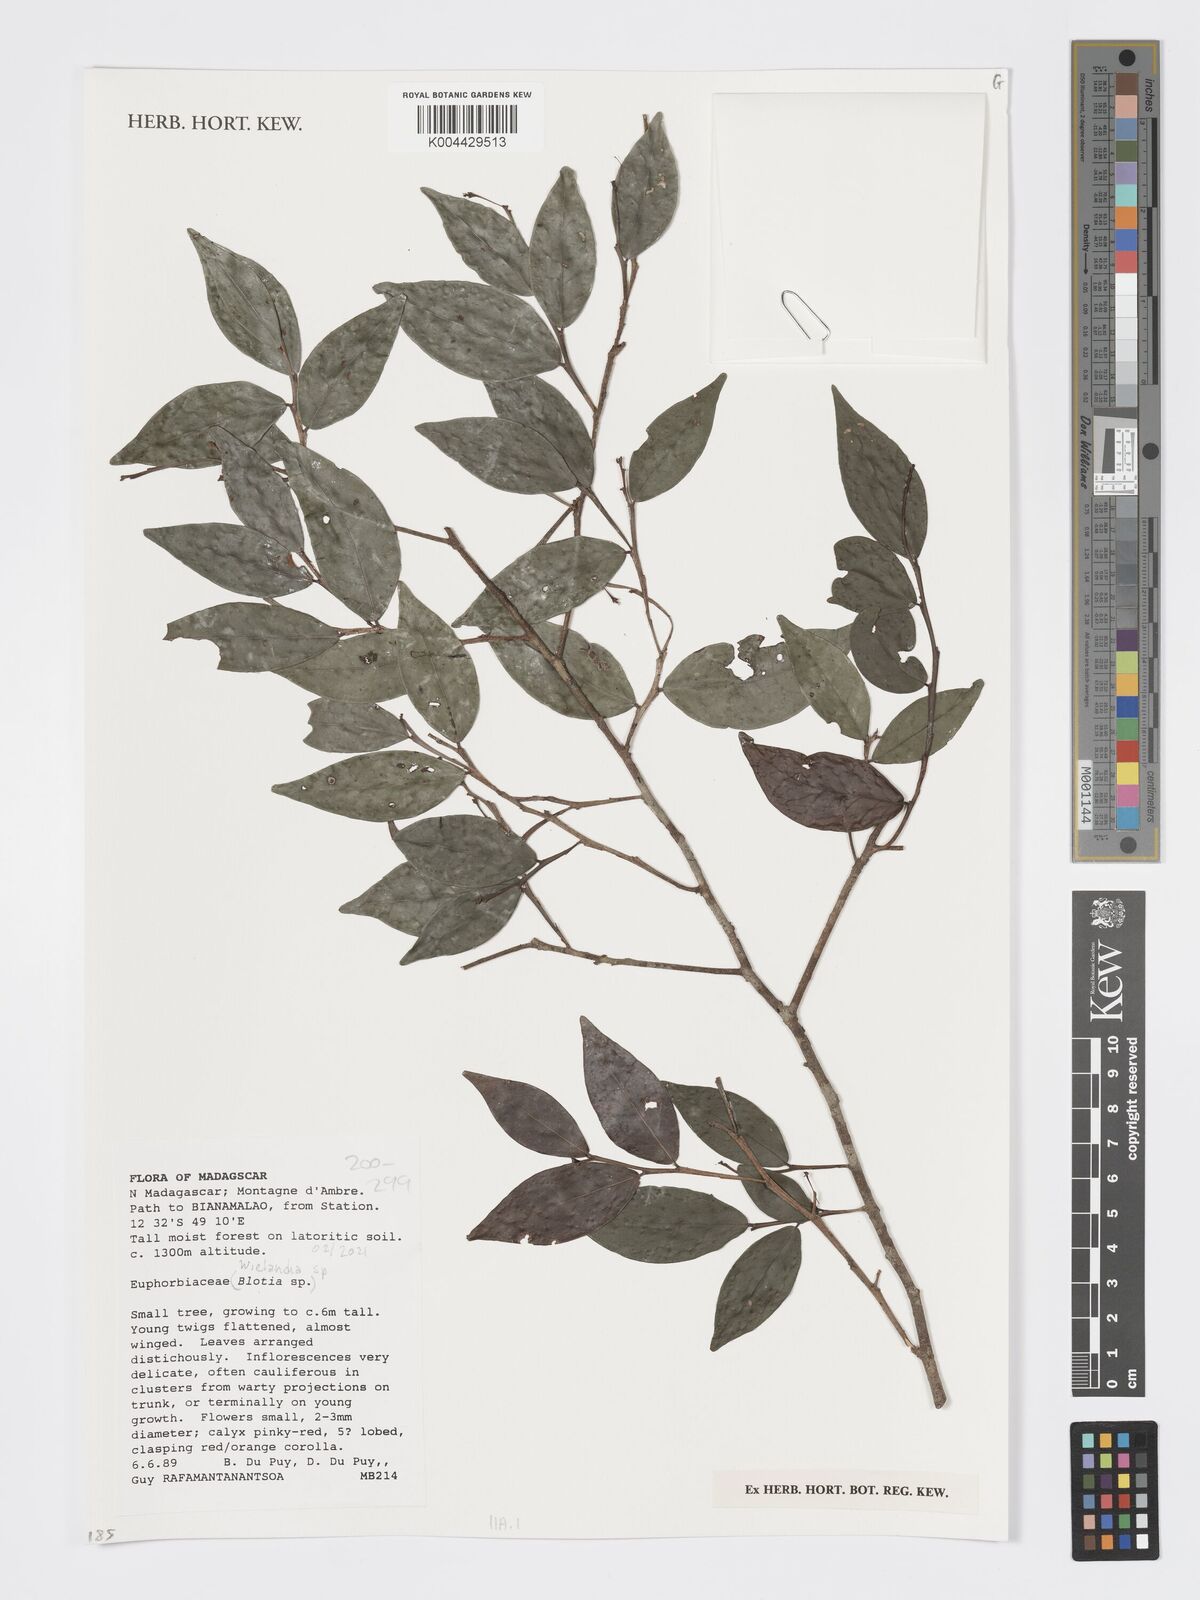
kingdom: Plantae
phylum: Tracheophyta
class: Magnoliopsida
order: Malpighiales
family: Phyllanthaceae
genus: Wielandia
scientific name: Wielandia
